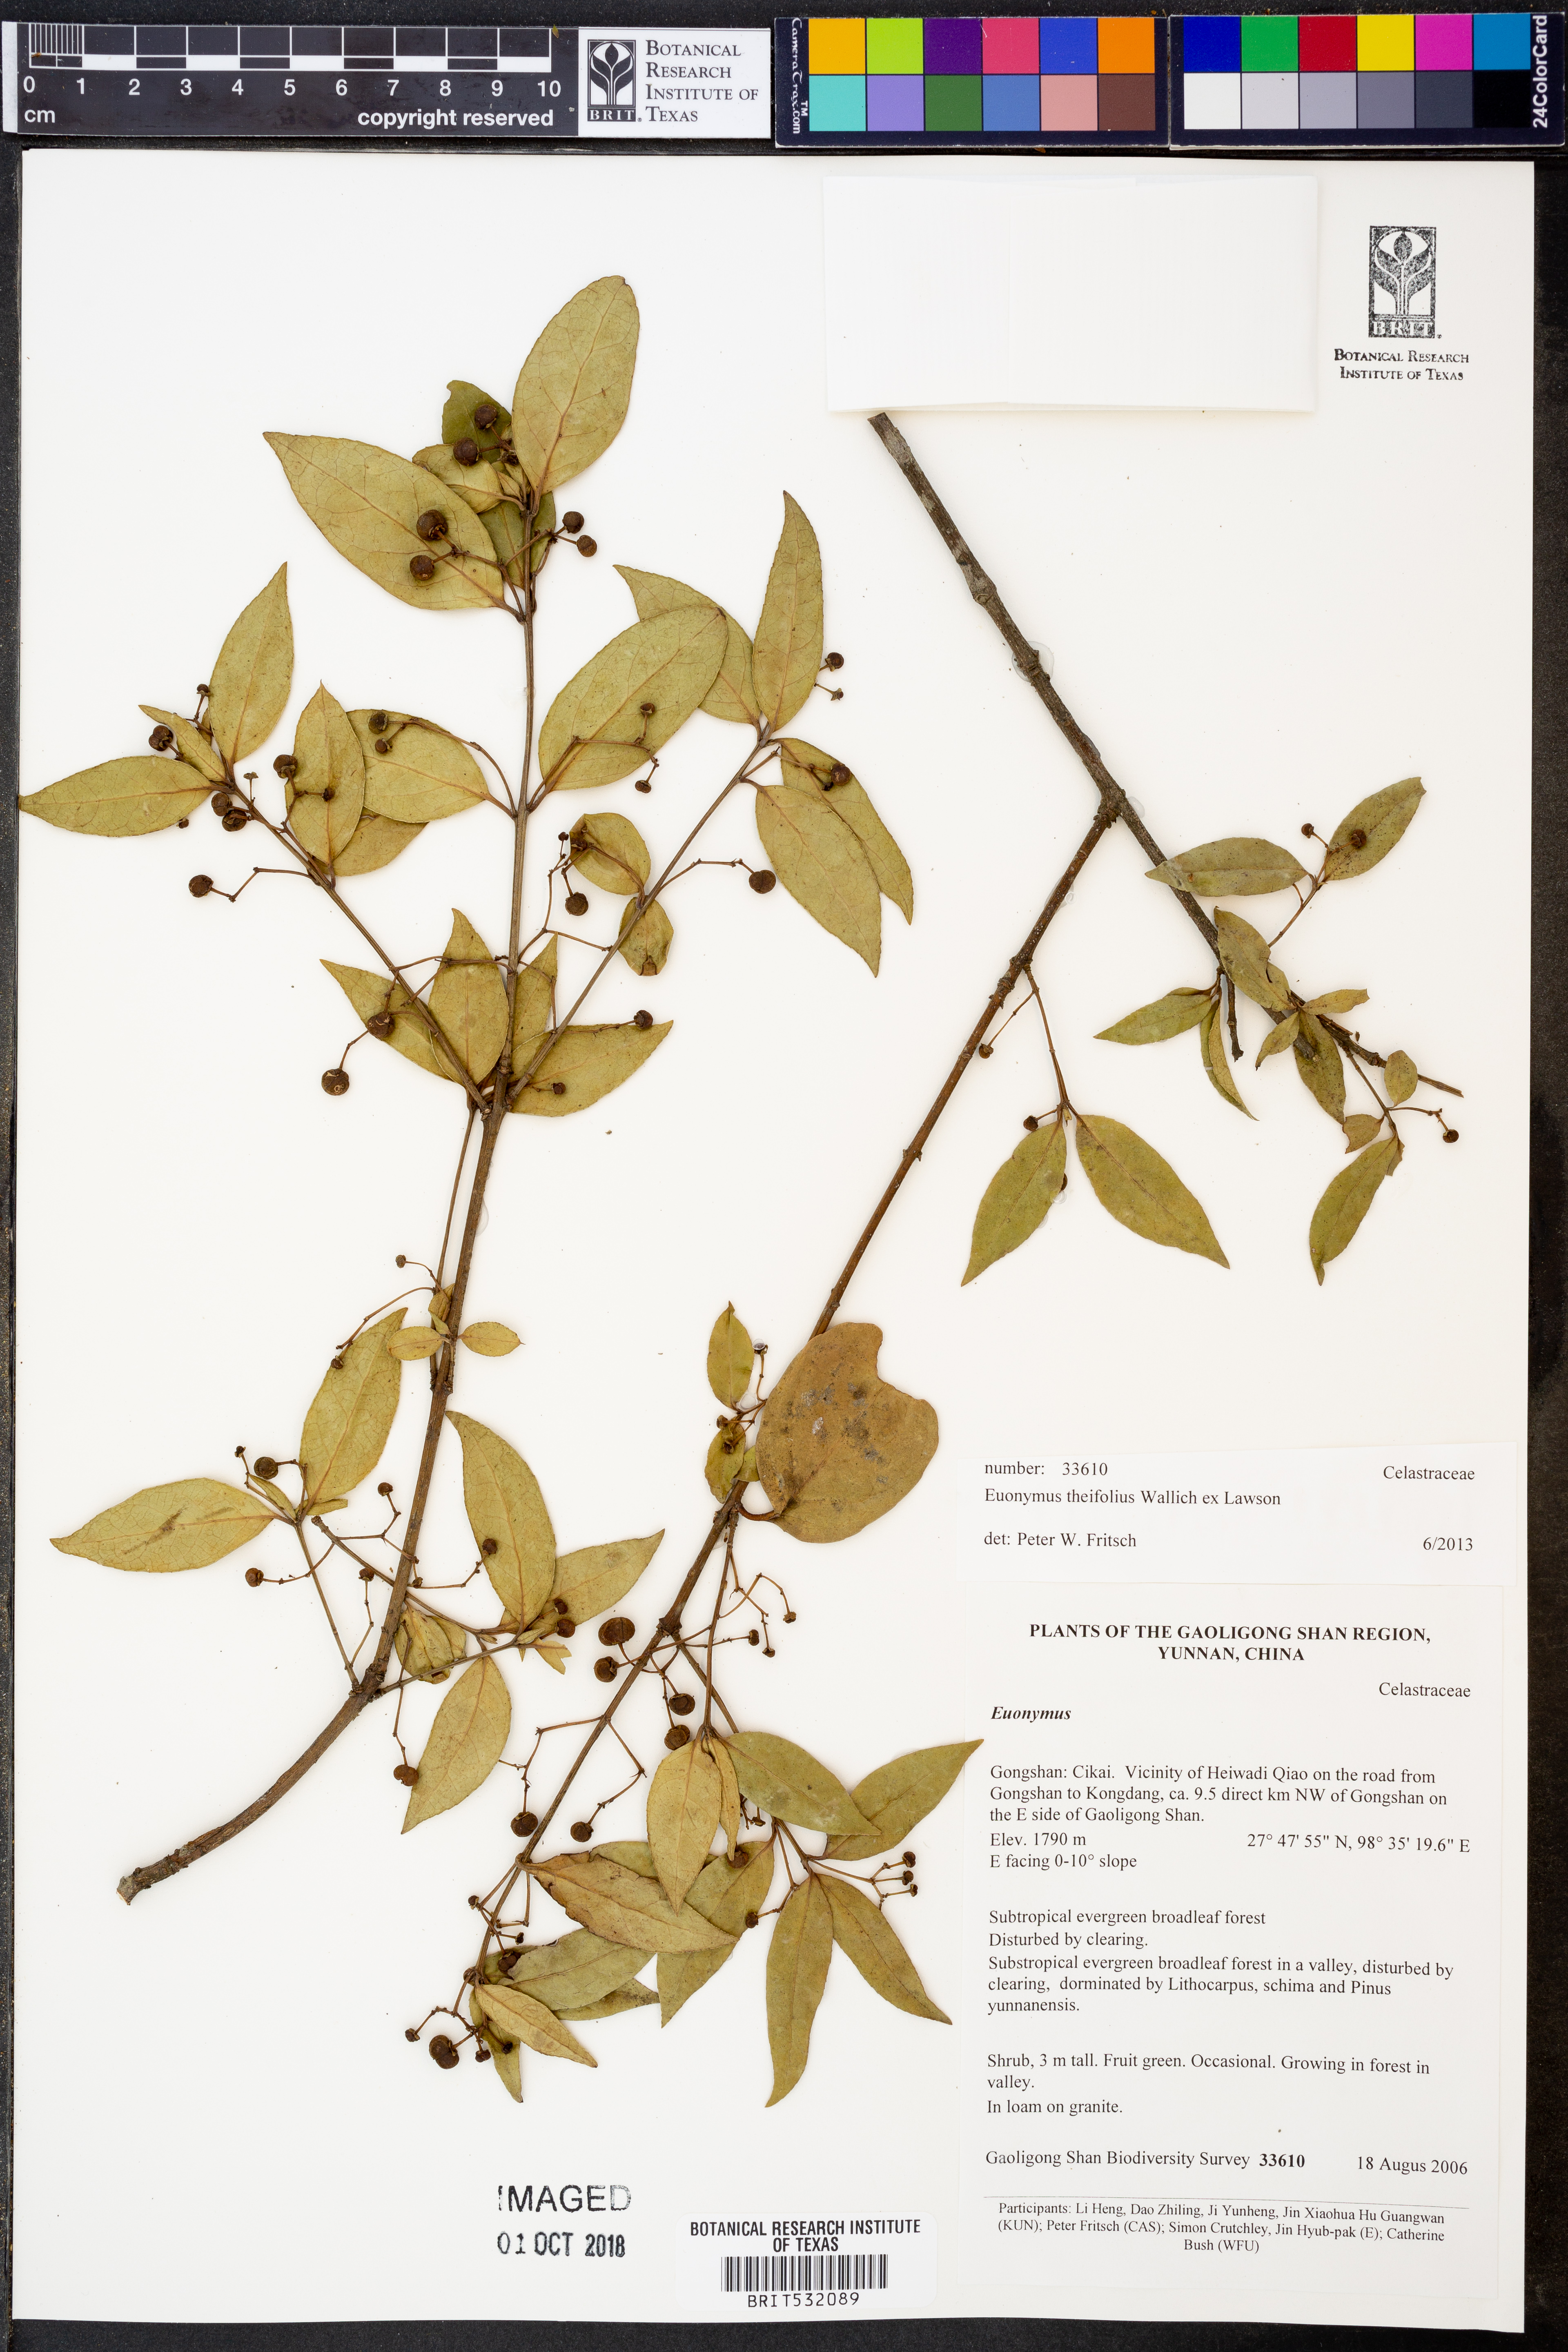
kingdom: Plantae
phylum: Tracheophyta
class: Magnoliopsida
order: Celastrales
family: Celastraceae
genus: Euonymus
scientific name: Euonymus theifolius
